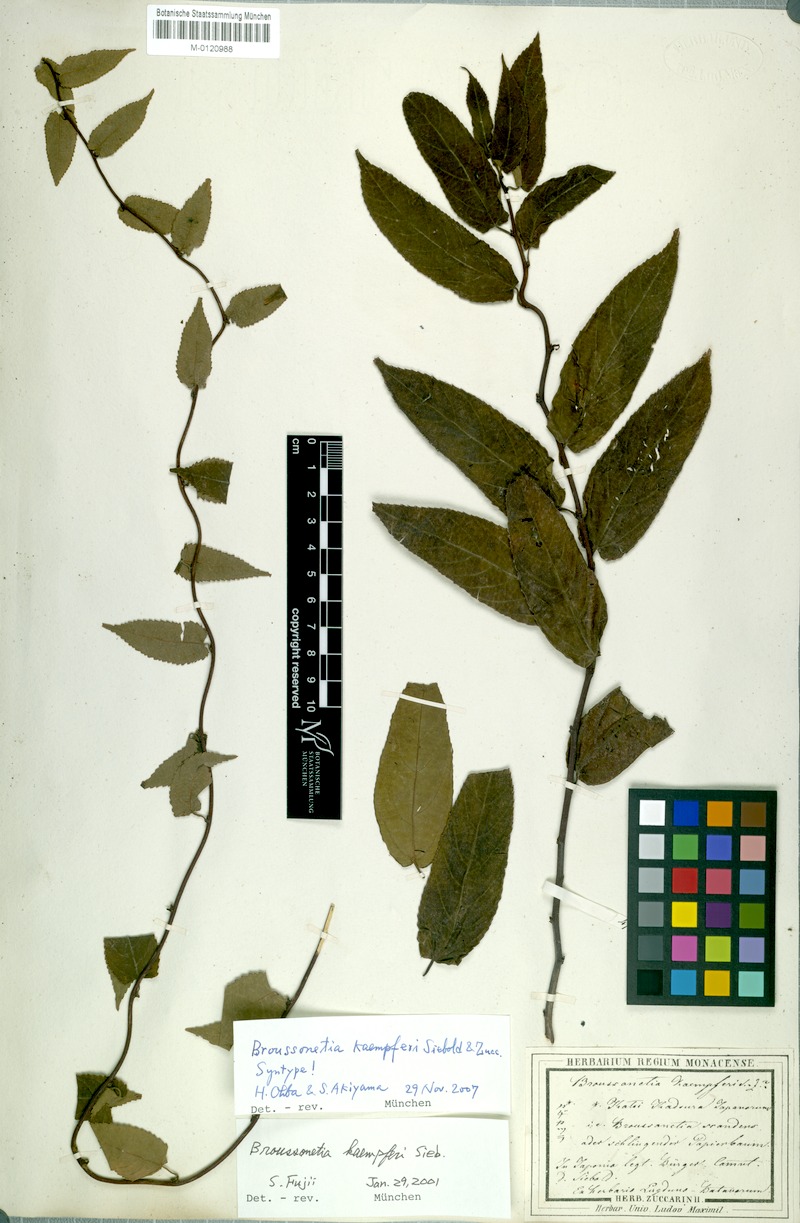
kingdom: Plantae
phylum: Tracheophyta
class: Magnoliopsida
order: Rosales
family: Moraceae
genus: Broussonetia
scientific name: Broussonetia kaempferi
